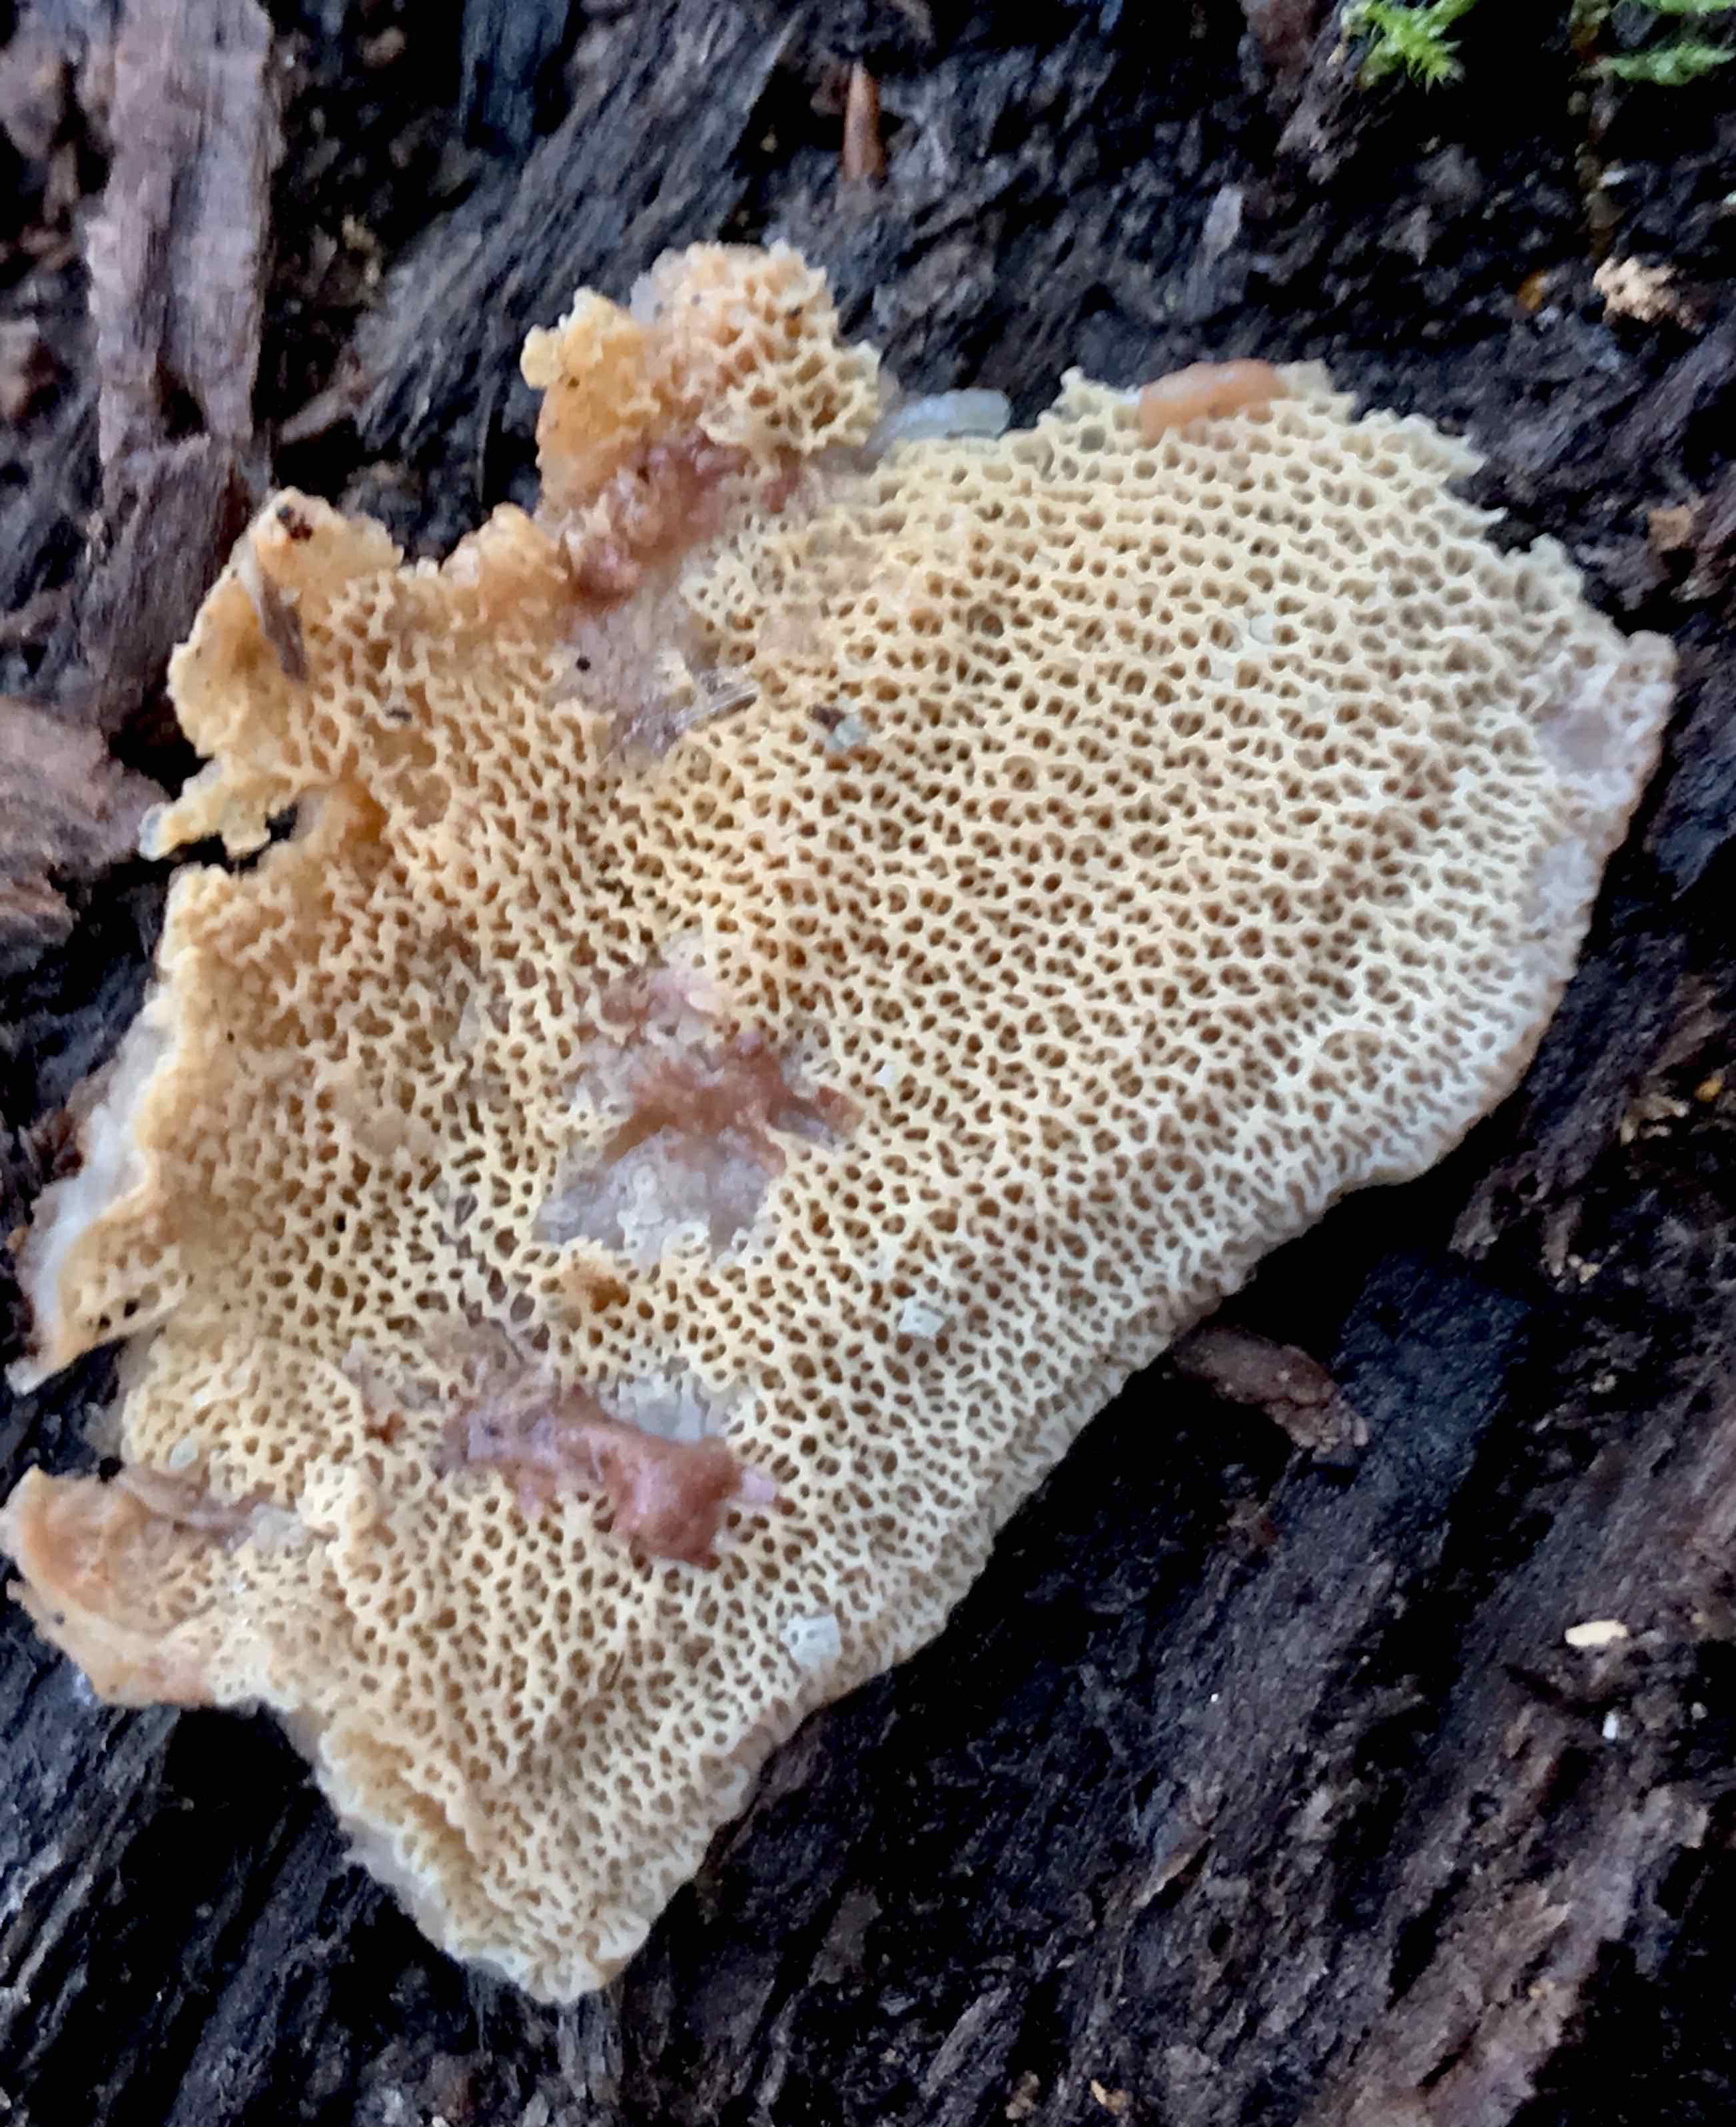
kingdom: Fungi
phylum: Basidiomycota
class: Agaricomycetes
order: Polyporales
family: Meruliaceae
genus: Phlebia
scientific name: Phlebia tremellosa
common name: bævrende åresvamp
